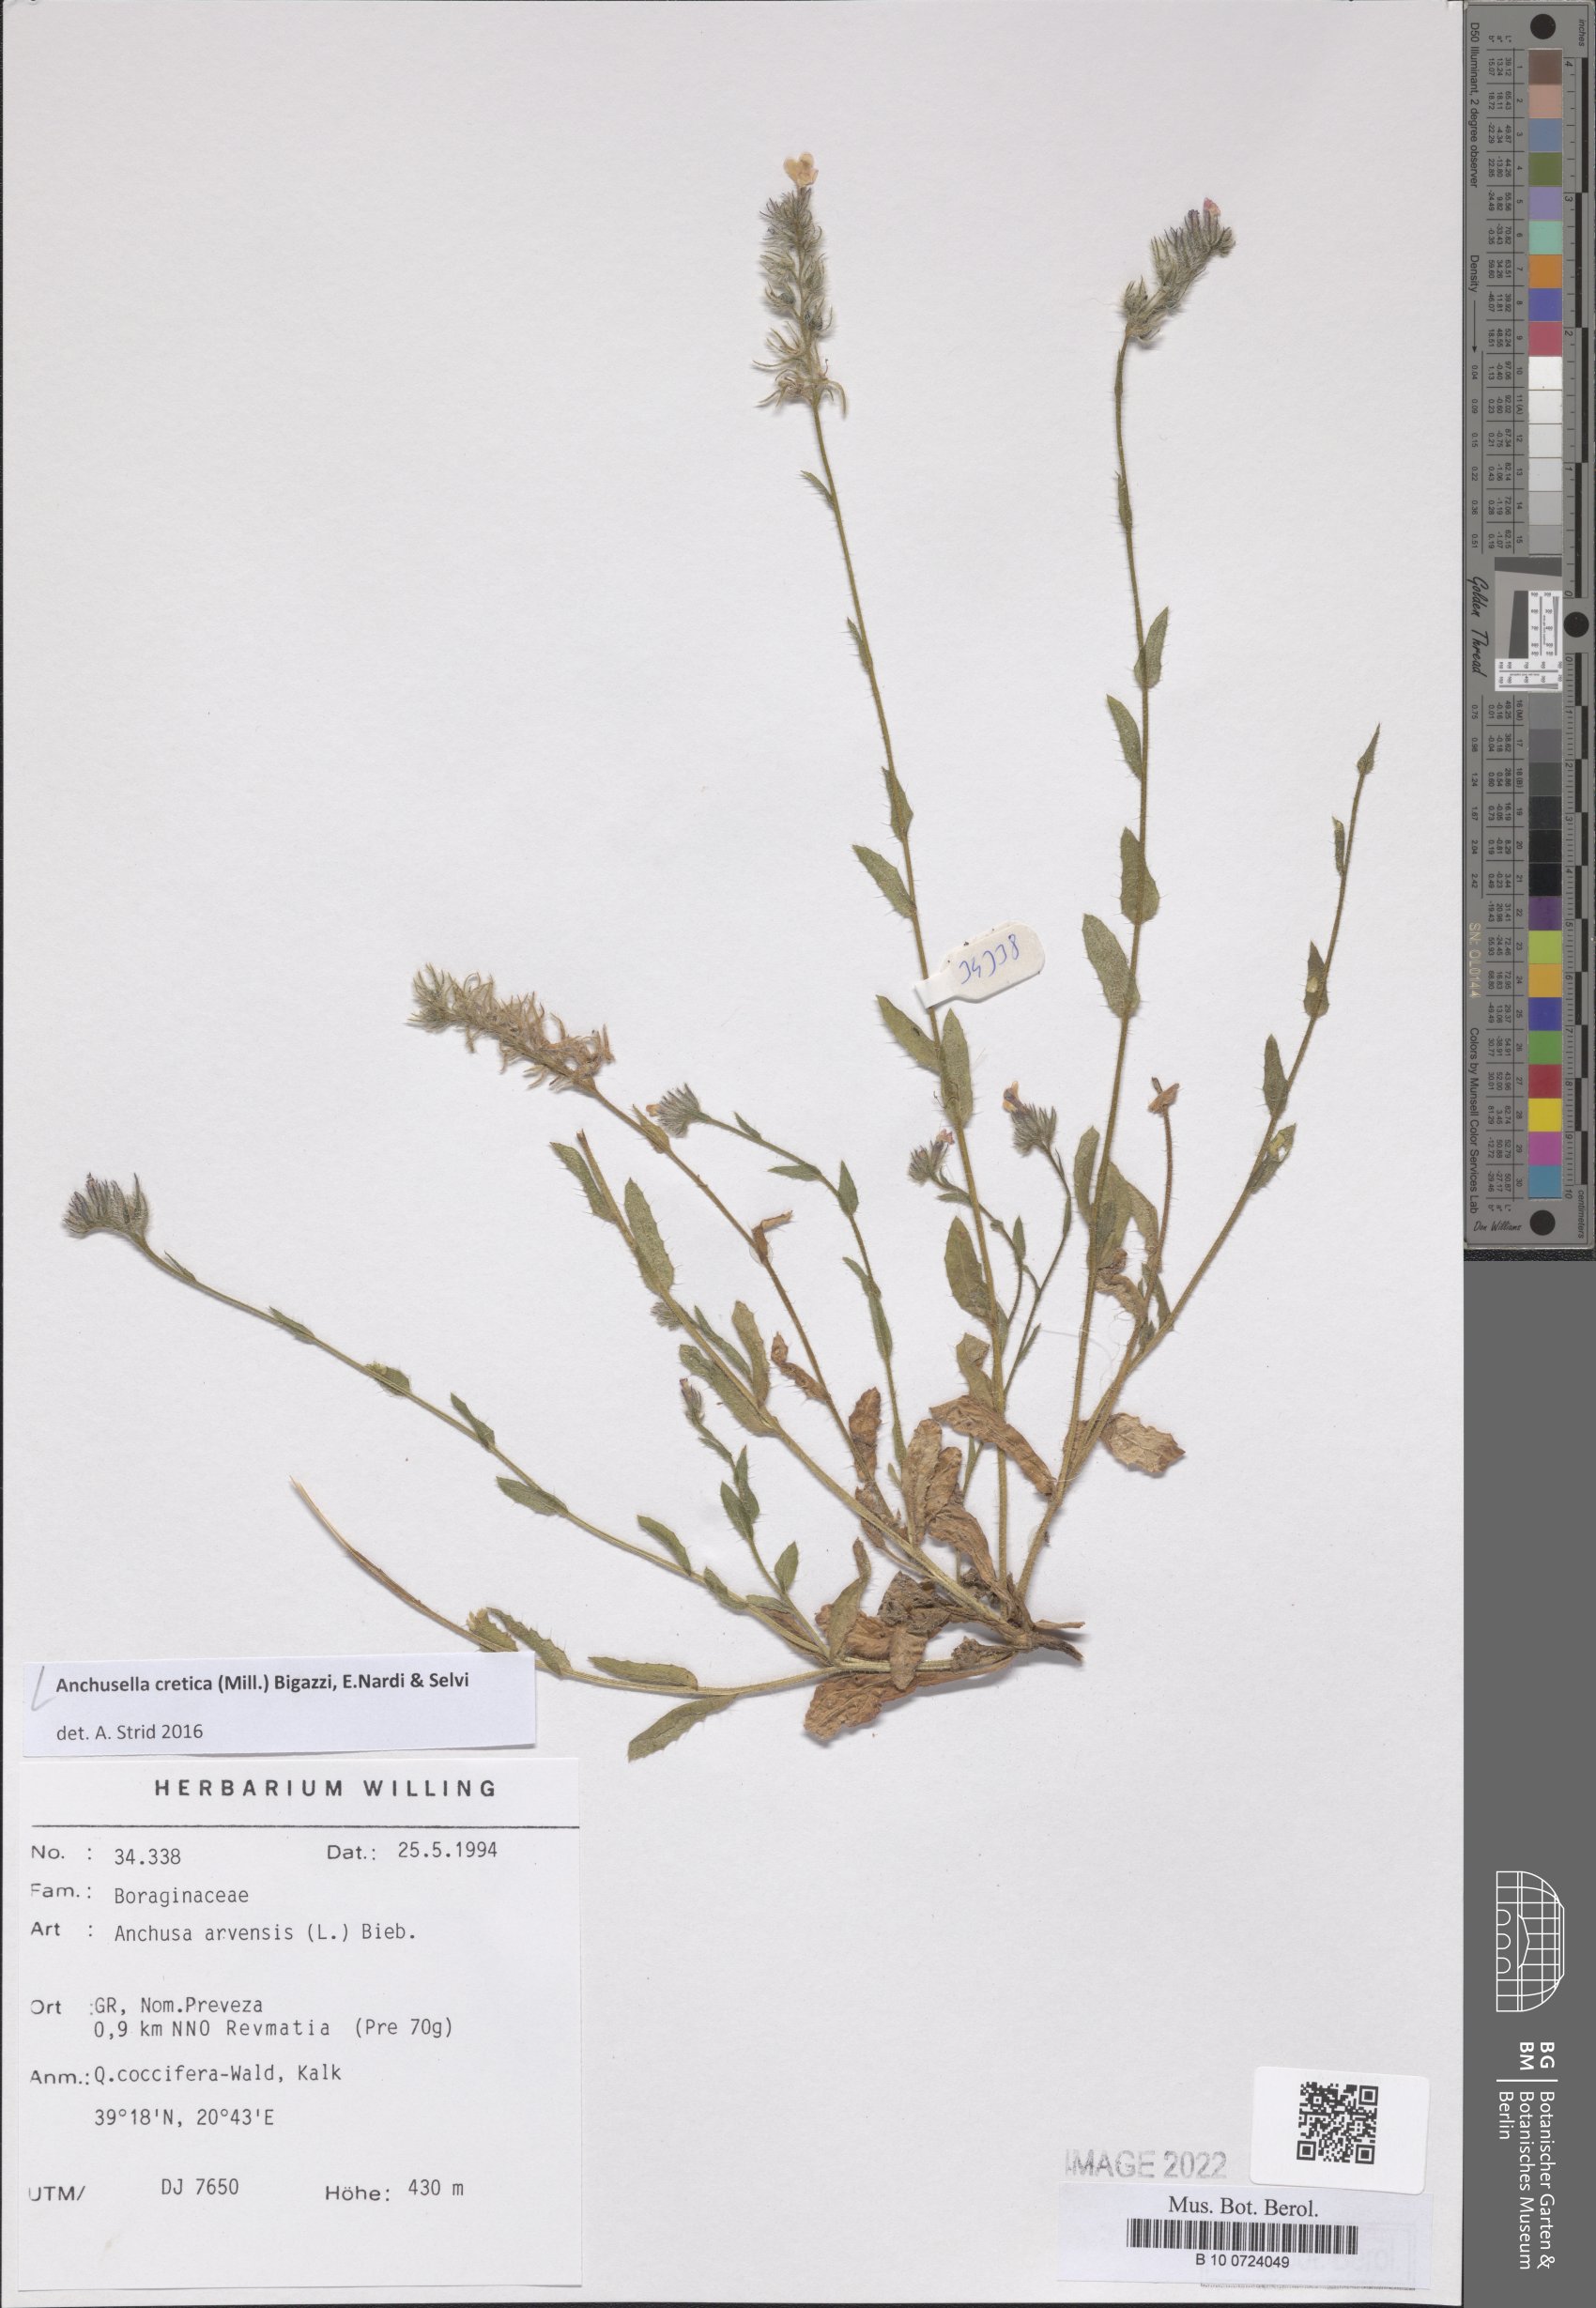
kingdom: Plantae
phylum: Tracheophyta
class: Magnoliopsida
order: Boraginales
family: Boraginaceae
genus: Anchusella
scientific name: Anchusella cretica
